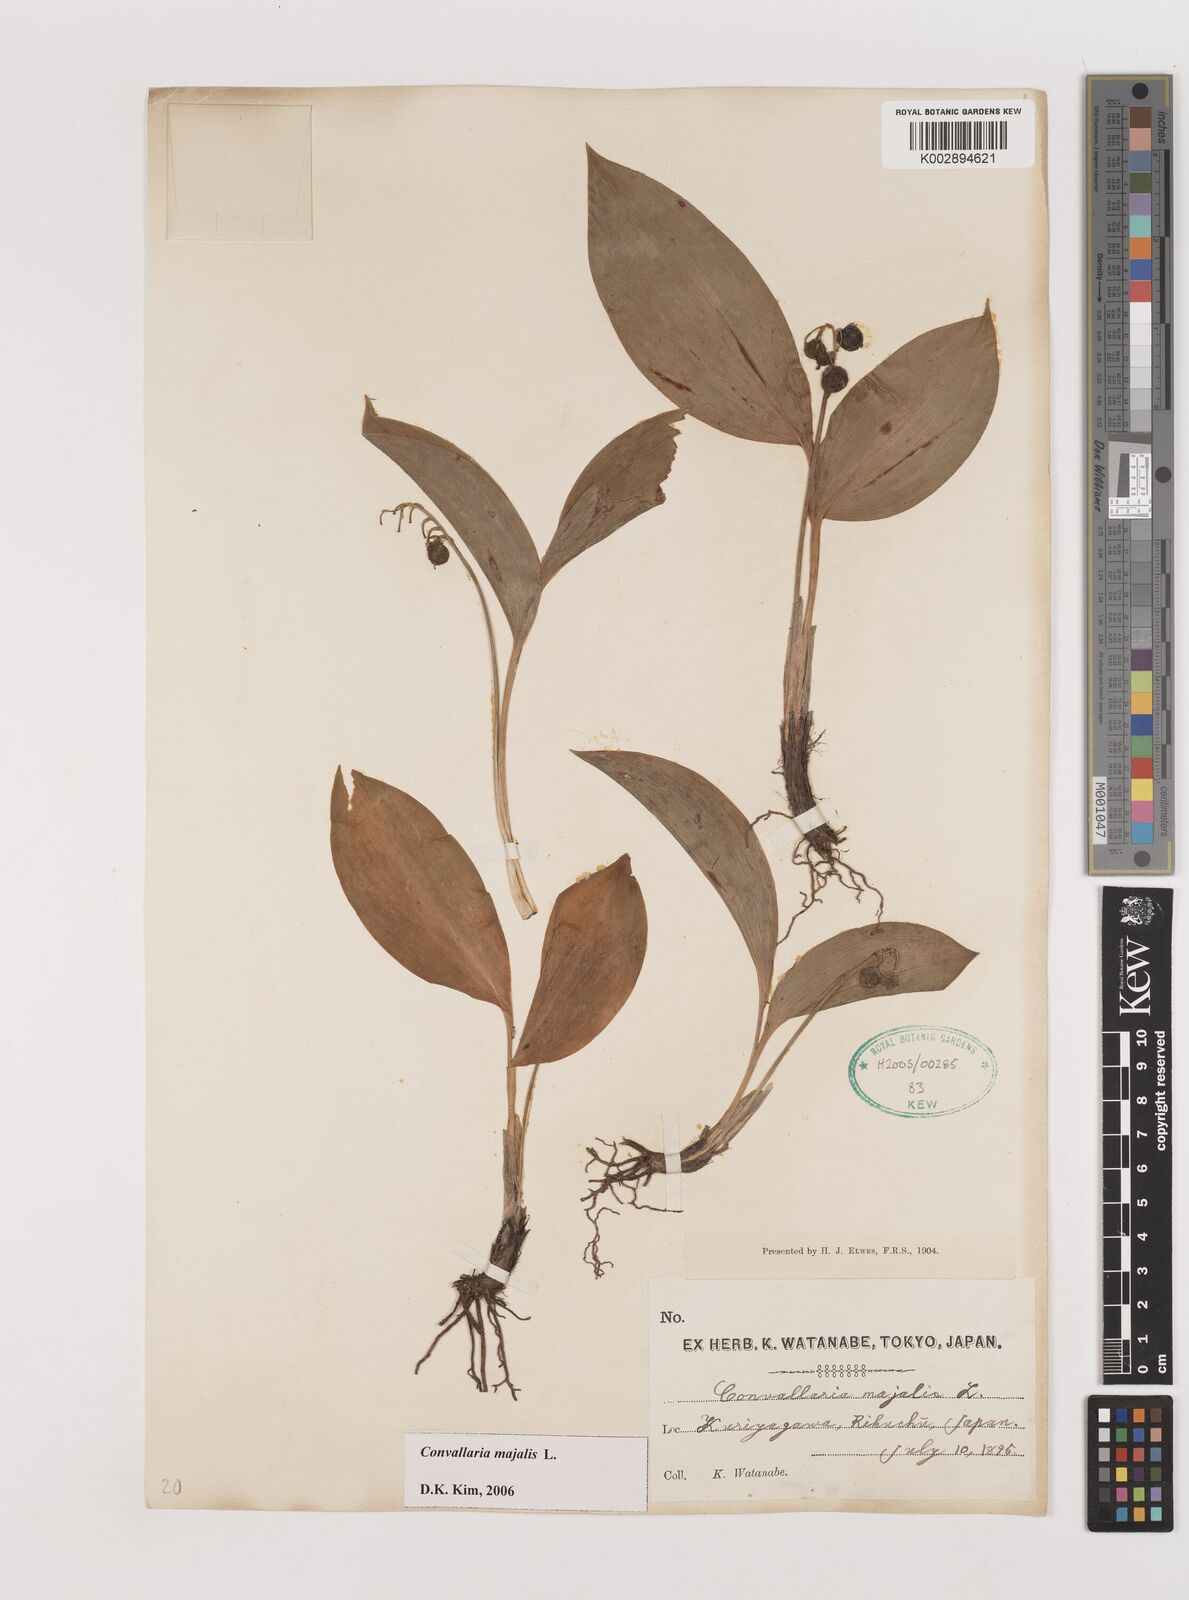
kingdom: Plantae
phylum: Tracheophyta
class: Liliopsida
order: Asparagales
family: Asparagaceae
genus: Ophiopogon
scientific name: Ophiopogon
